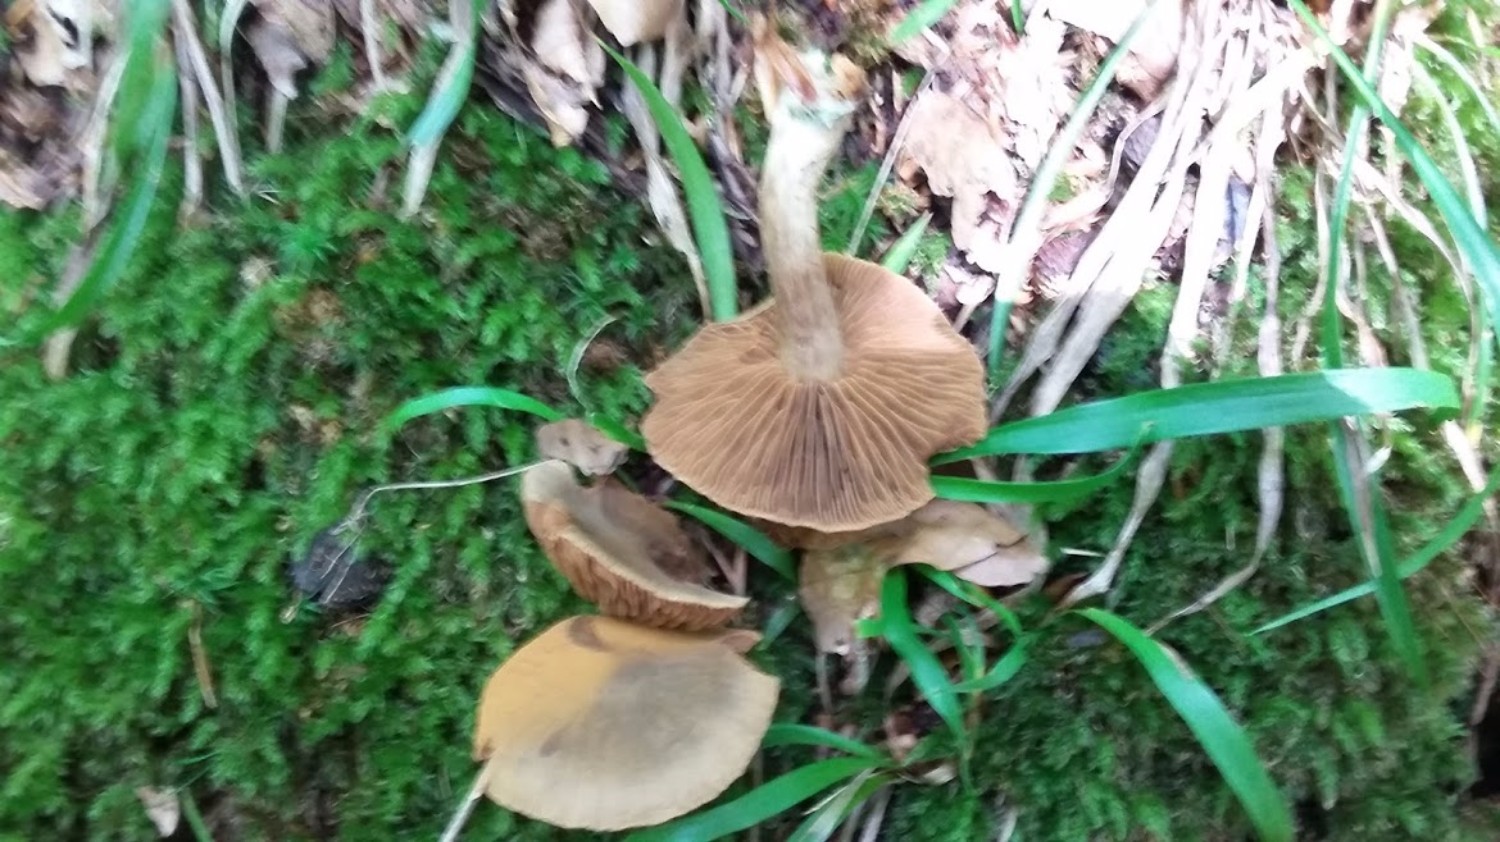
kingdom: Fungi
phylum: Basidiomycota
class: Agaricomycetes
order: Agaricales
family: Cortinariaceae
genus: Cortinarius
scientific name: Cortinarius
